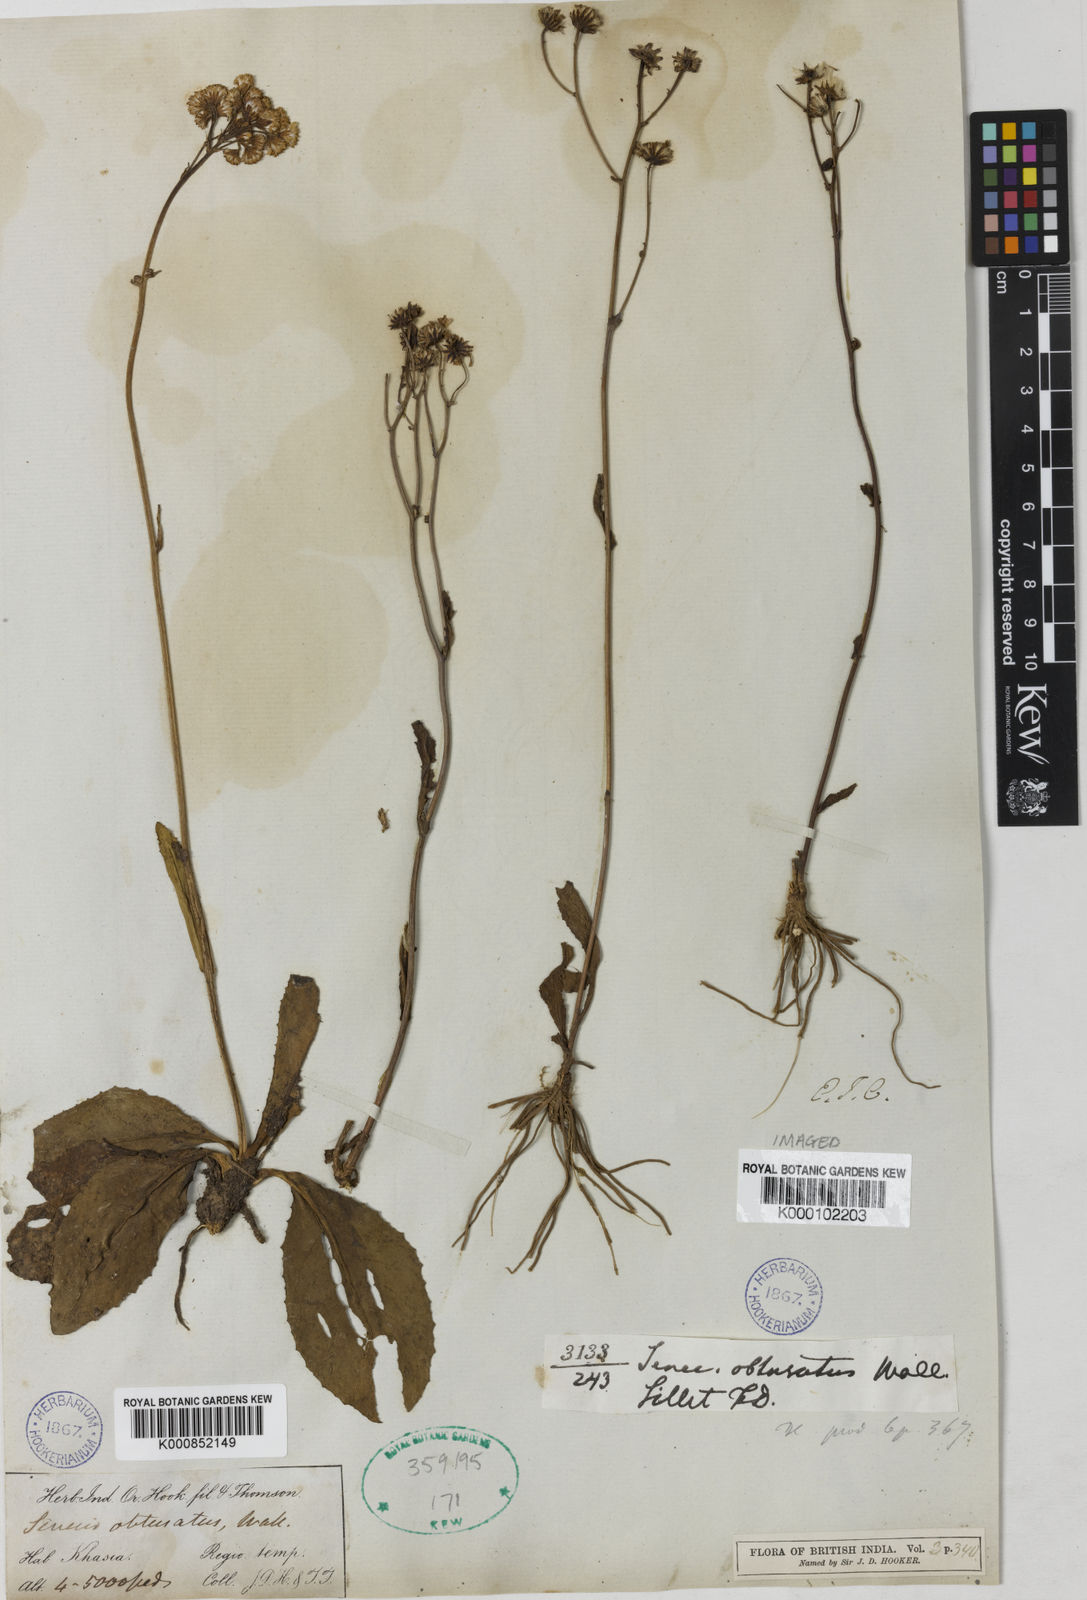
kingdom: Plantae
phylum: Tracheophyta
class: Magnoliopsida
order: Asterales
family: Asteraceae
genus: Senecio
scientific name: Senecio obtusatus
